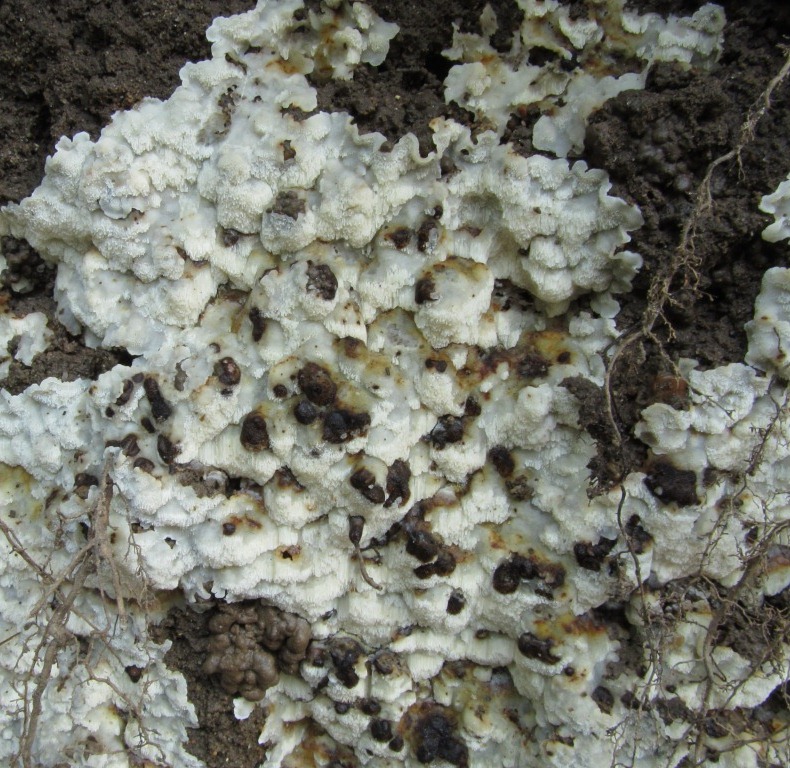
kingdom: Fungi
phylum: Basidiomycota
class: Agaricomycetes
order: Polyporales
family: Meruliaceae
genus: Physisporinus
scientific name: Physisporinus vitreus
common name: mastesvamp
